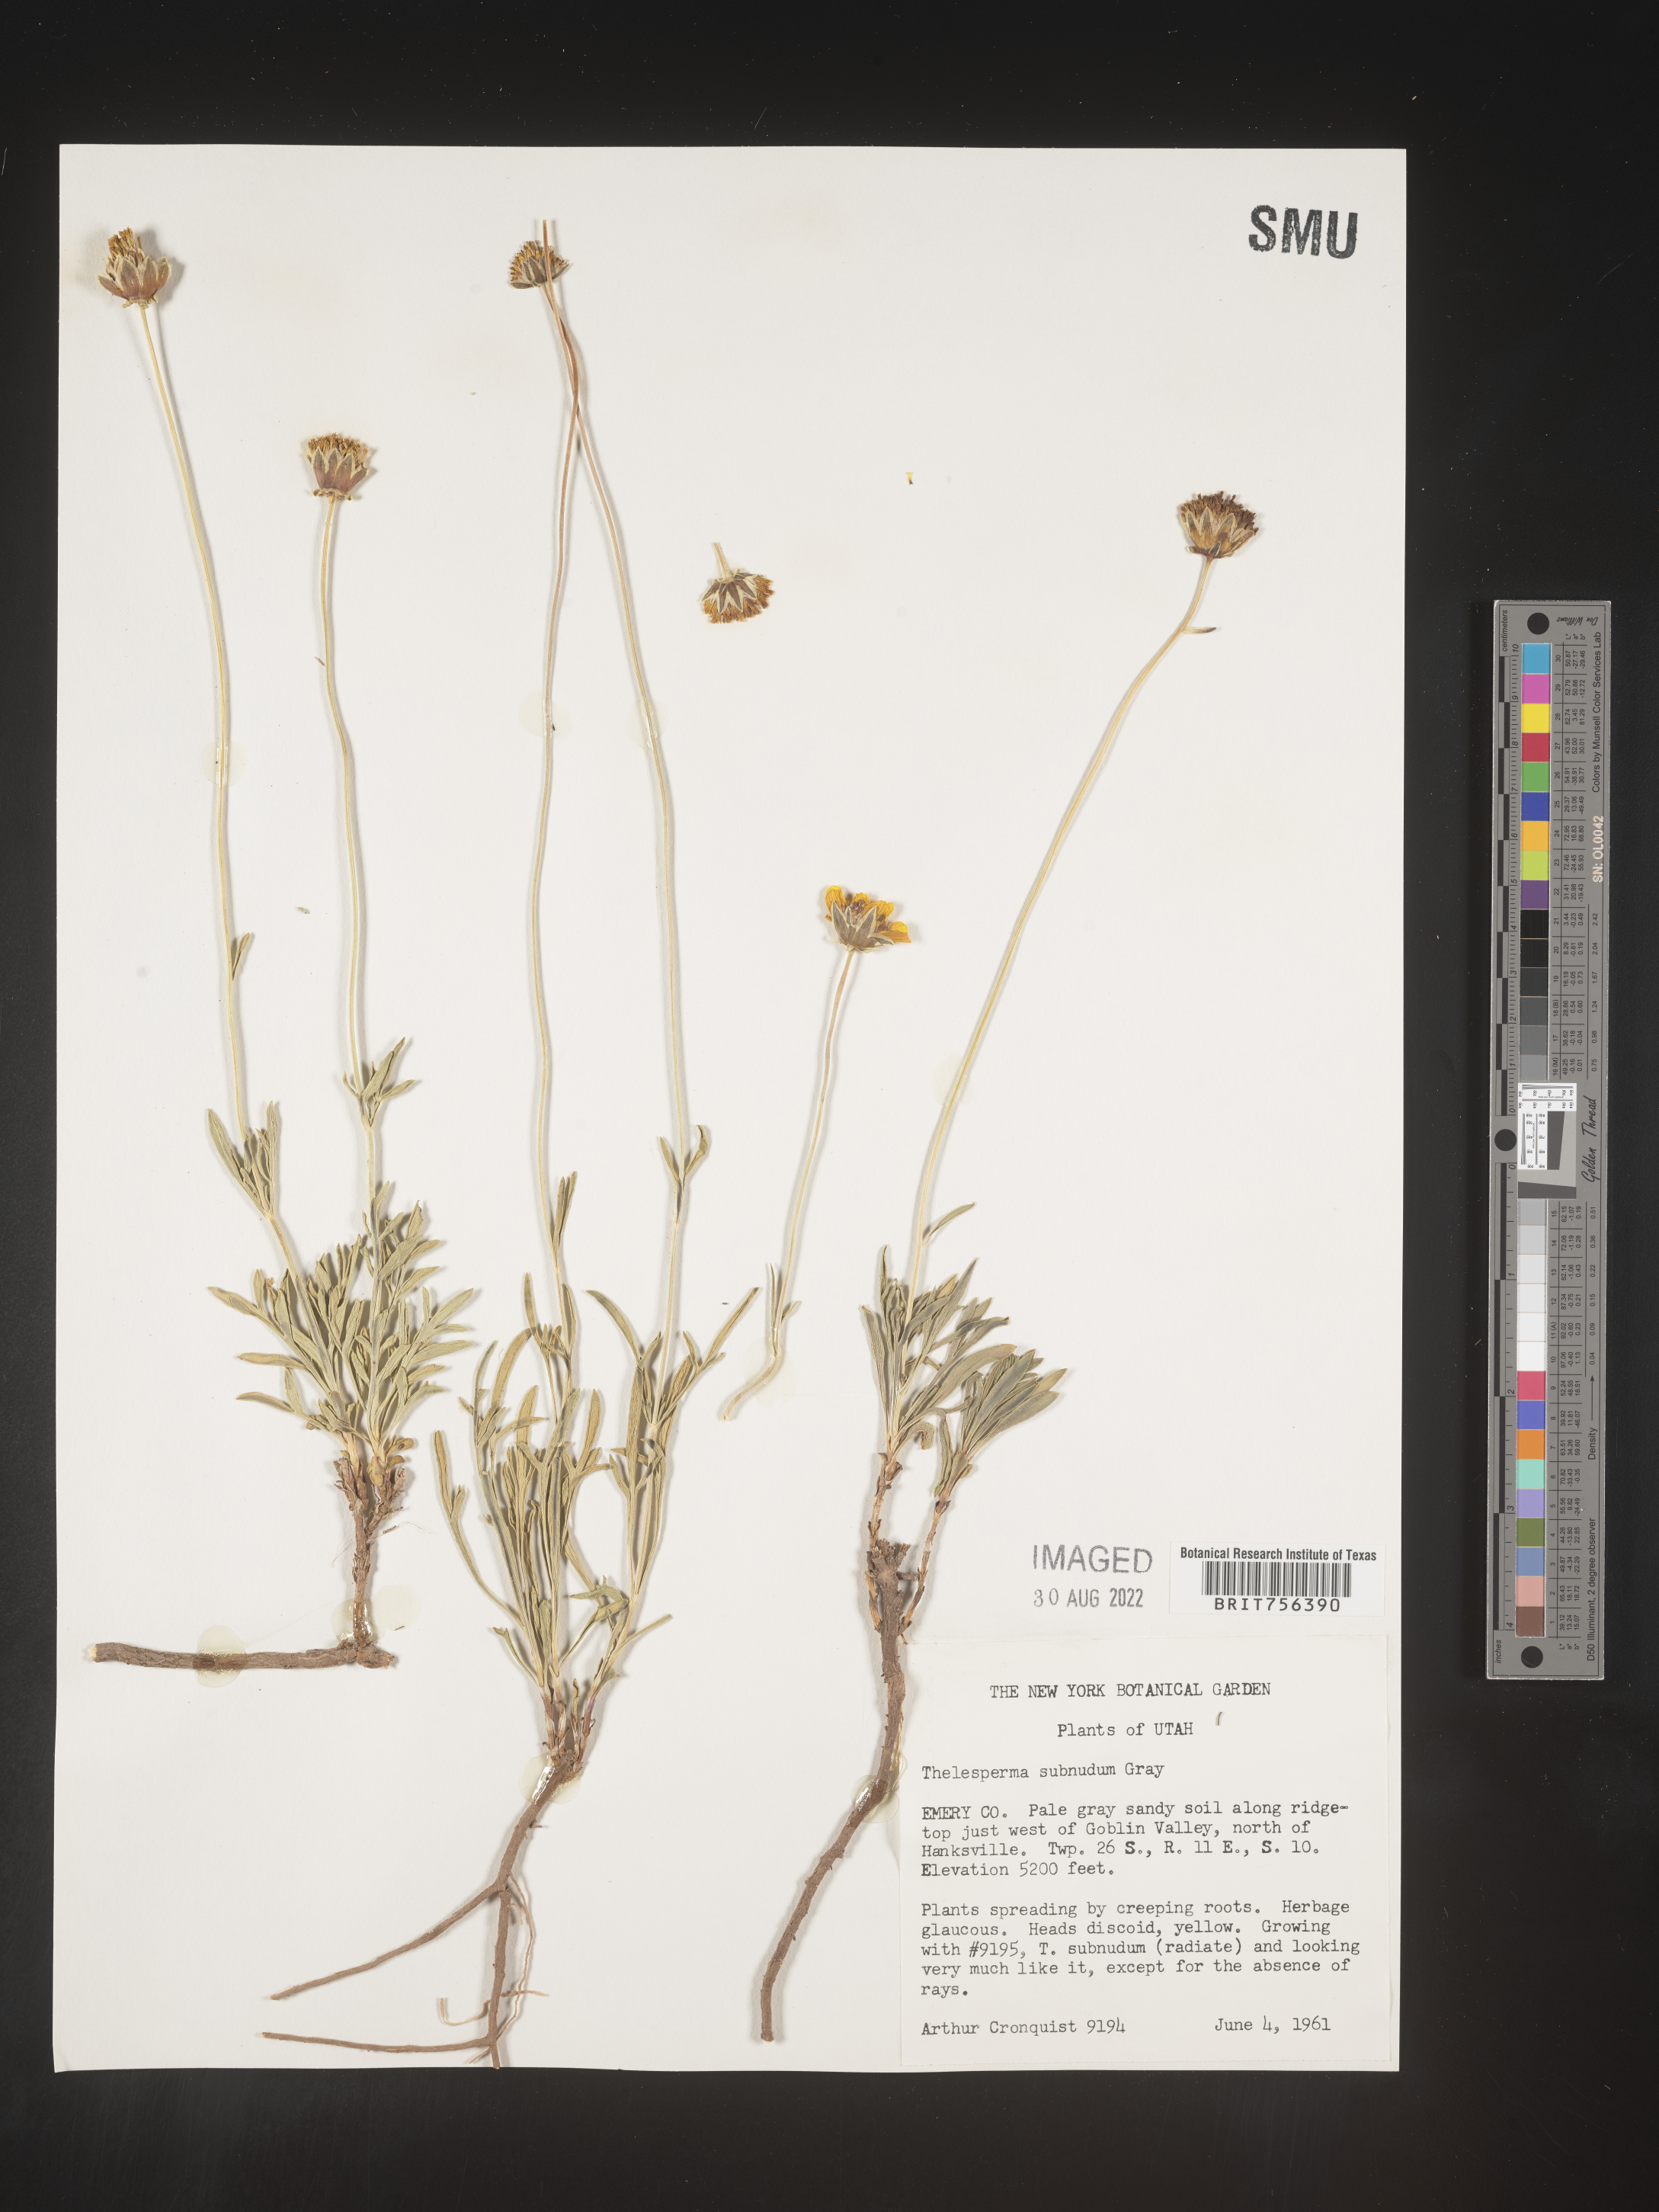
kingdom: Plantae
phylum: Tracheophyta
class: Magnoliopsida
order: Asterales
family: Asteraceae
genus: Thelesperma
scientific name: Thelesperma
